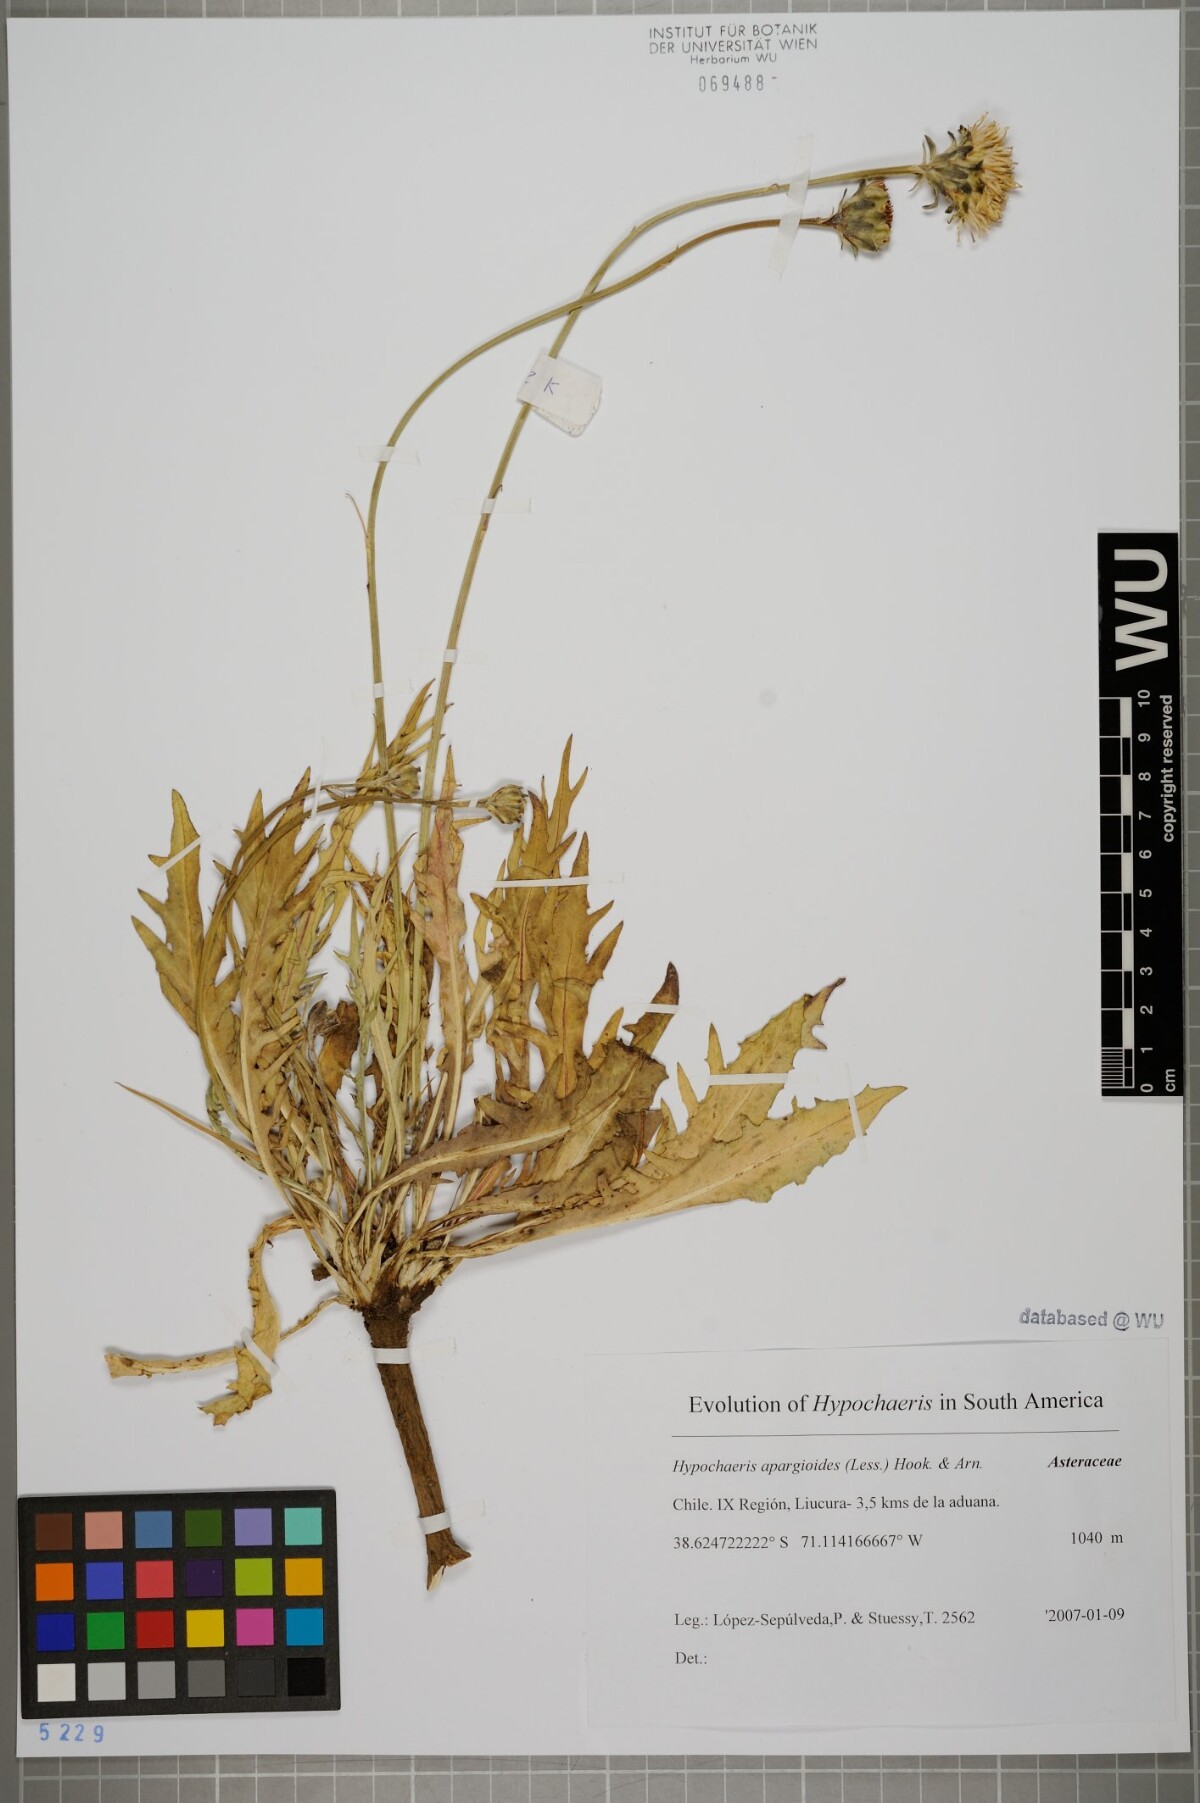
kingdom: Plantae
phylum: Tracheophyta
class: Magnoliopsida
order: Asterales
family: Asteraceae
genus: Hypochaeris
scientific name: Hypochaeris apargioides
